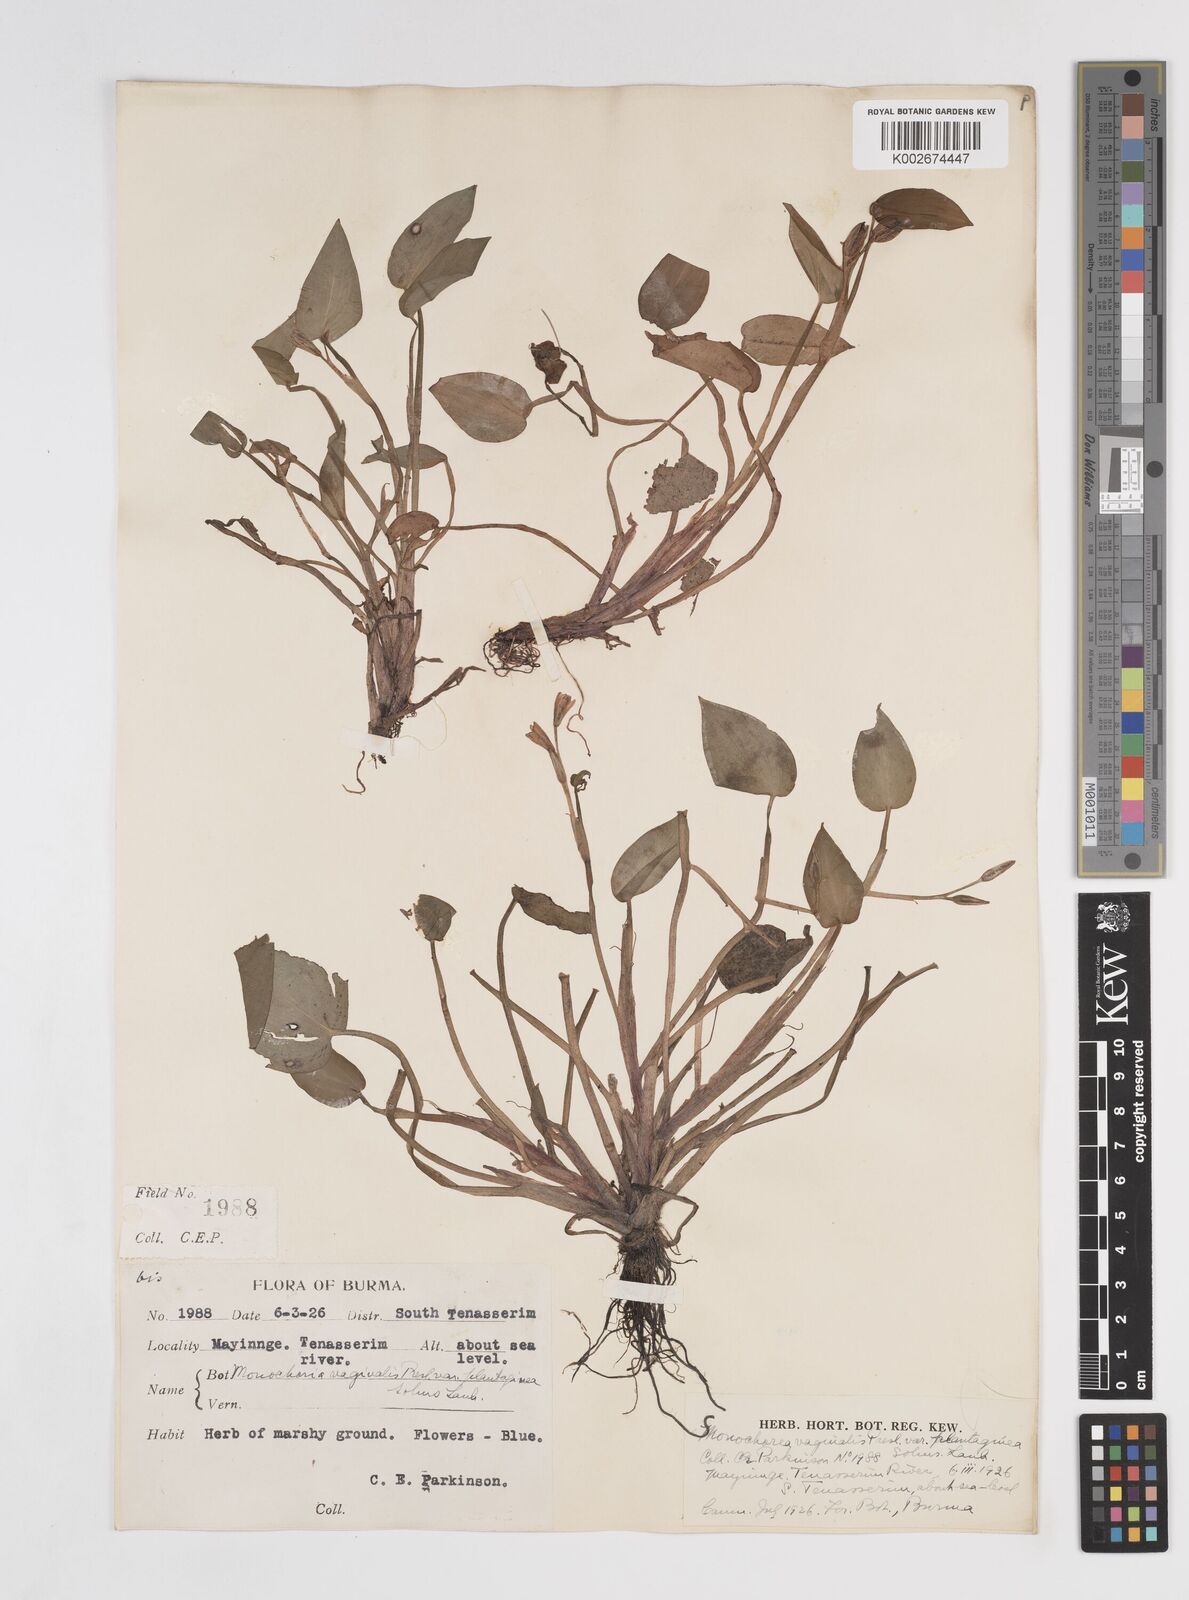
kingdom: Plantae
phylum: Tracheophyta
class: Liliopsida
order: Commelinales
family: Pontederiaceae
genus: Pontederia
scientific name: Pontederia vaginalis
